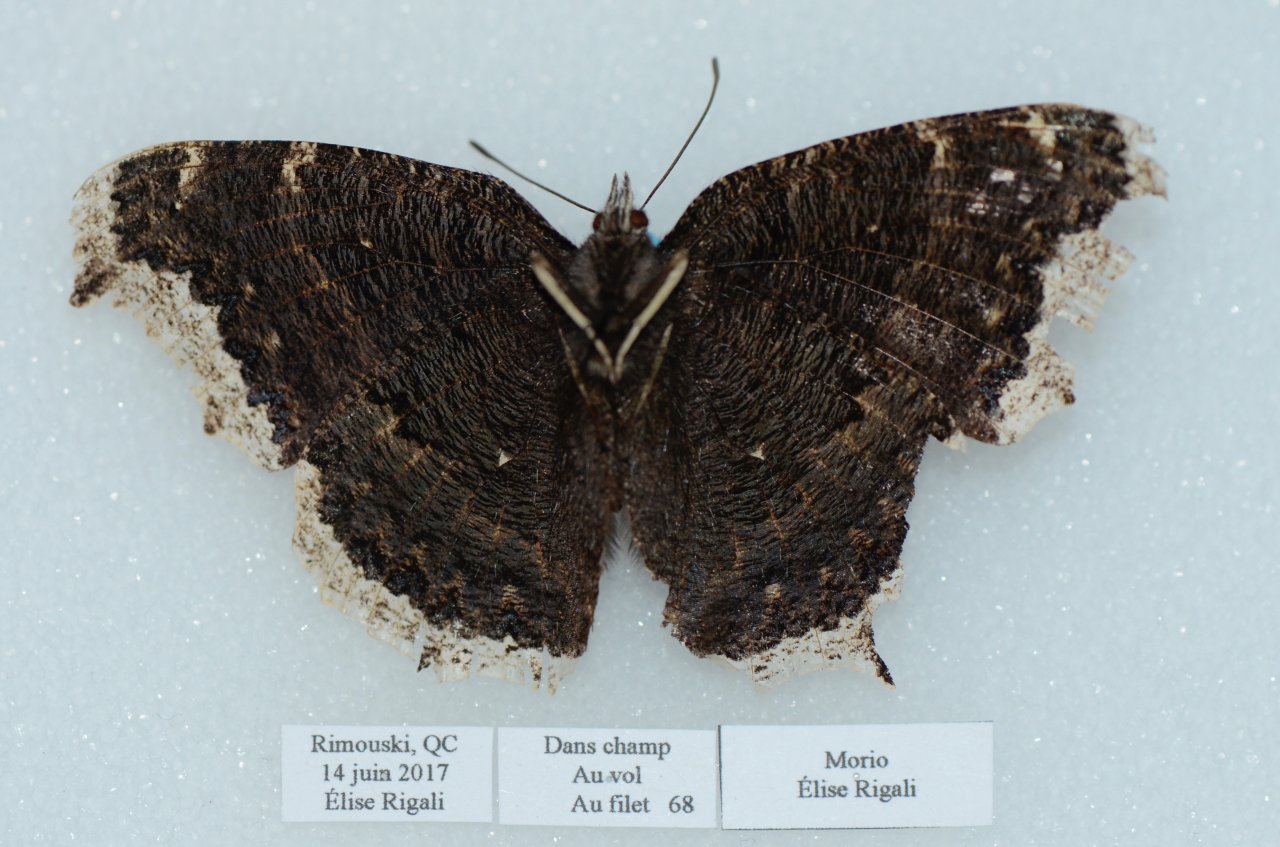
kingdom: Animalia
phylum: Arthropoda
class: Insecta
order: Lepidoptera
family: Nymphalidae
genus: Nymphalis
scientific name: Nymphalis antiopa
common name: Mourning Cloak
